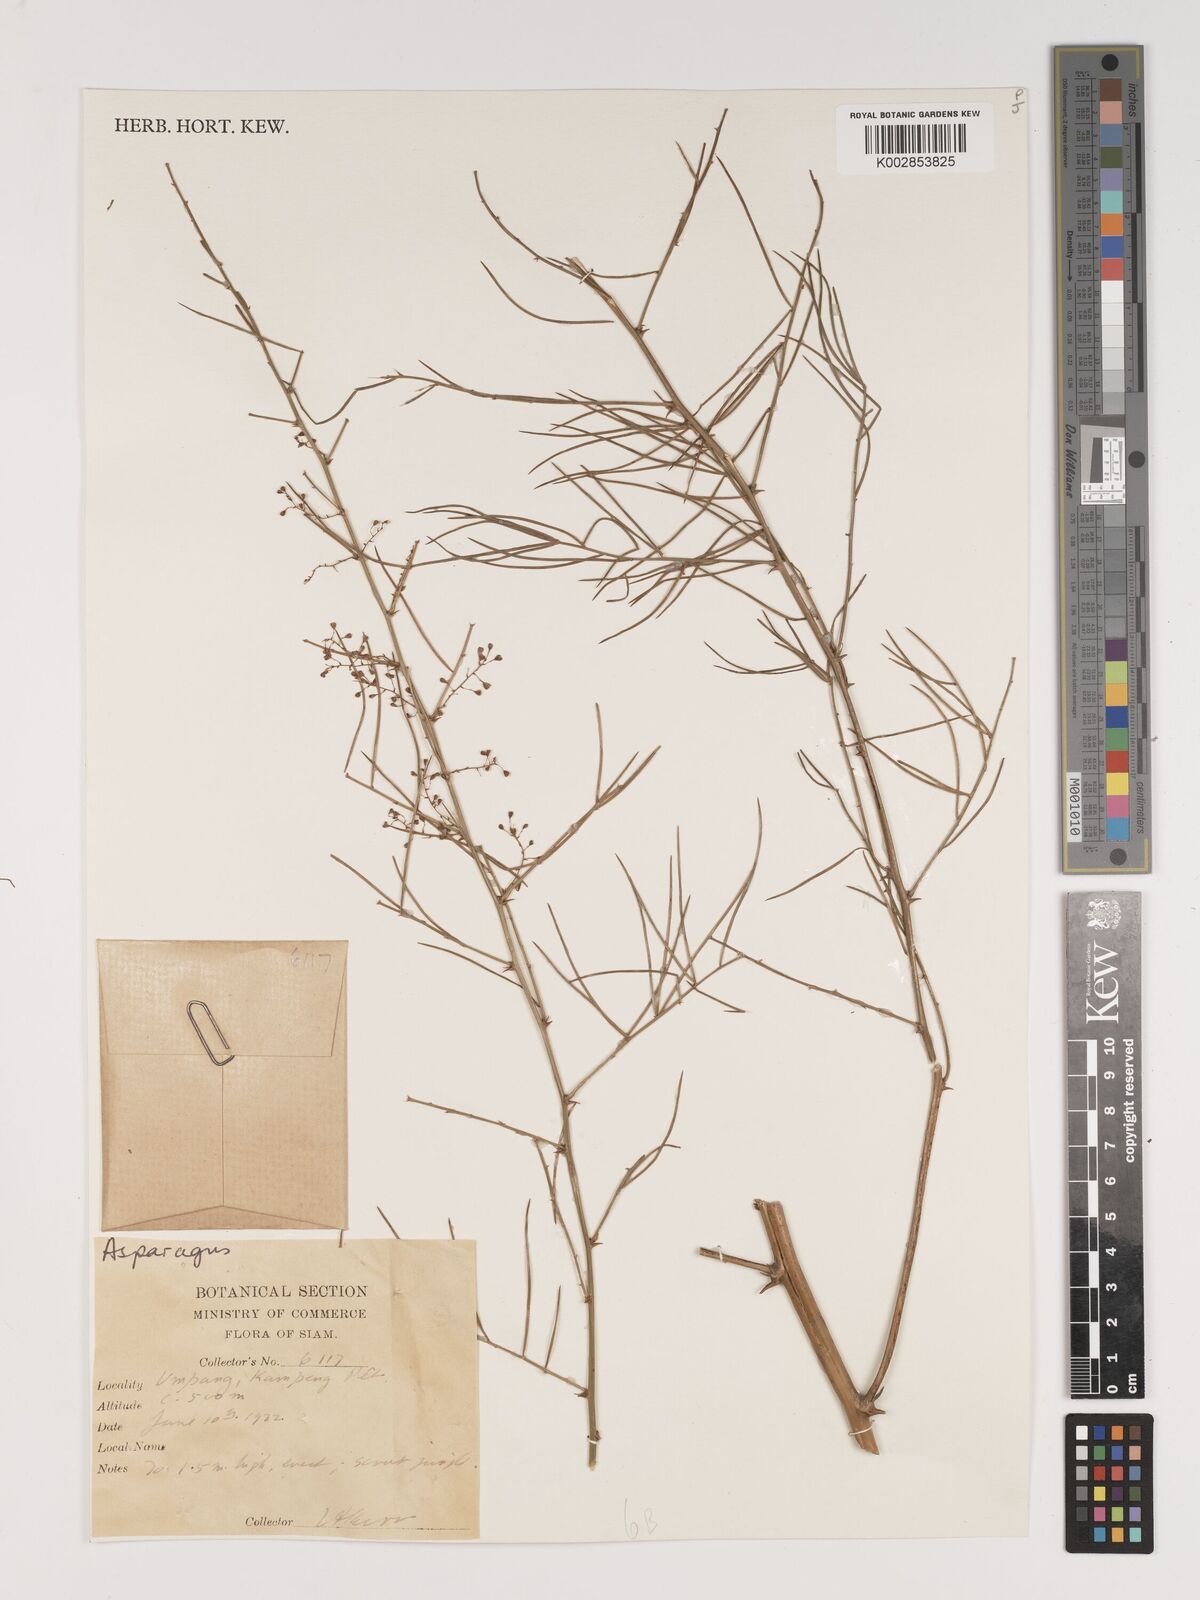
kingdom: Plantae
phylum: Tracheophyta
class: Liliopsida
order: Asparagales
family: Asparagaceae
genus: Asparagus
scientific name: Asparagus
